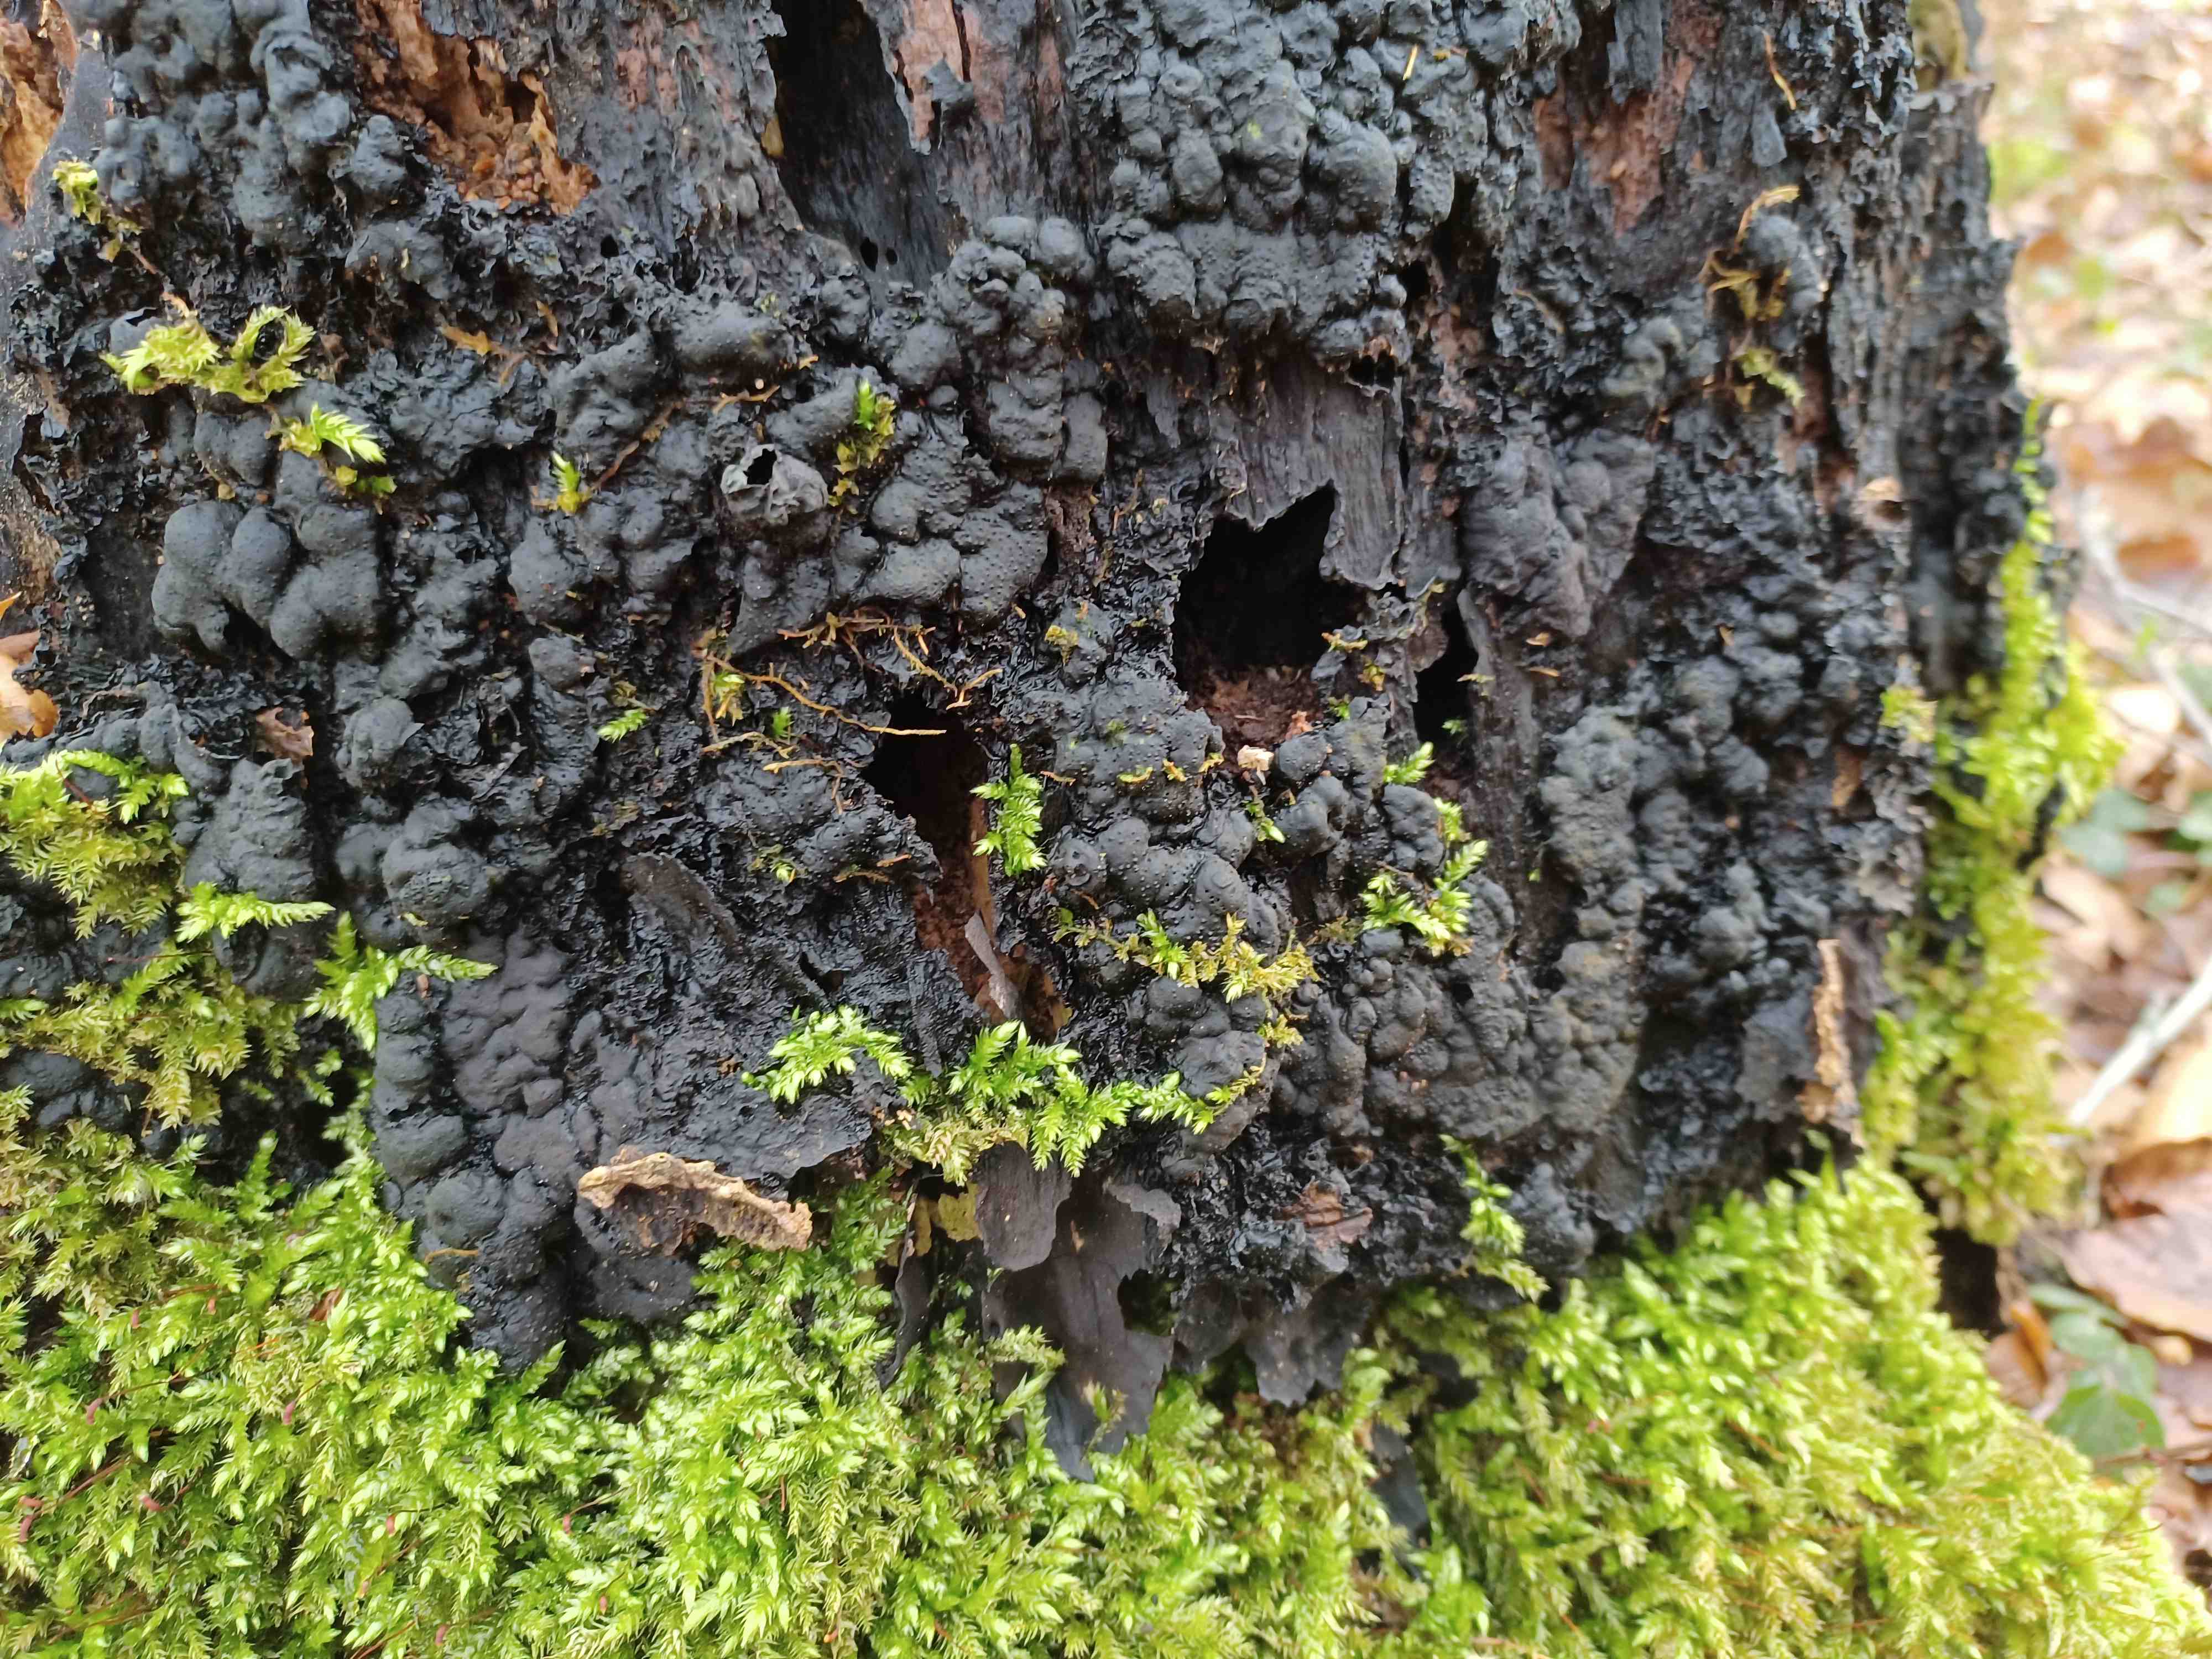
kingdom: Fungi
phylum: Ascomycota
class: Sordariomycetes
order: Xylariales
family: Xylariaceae
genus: Kretzschmaria
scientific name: Kretzschmaria deusta
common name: stor kulsvamp
